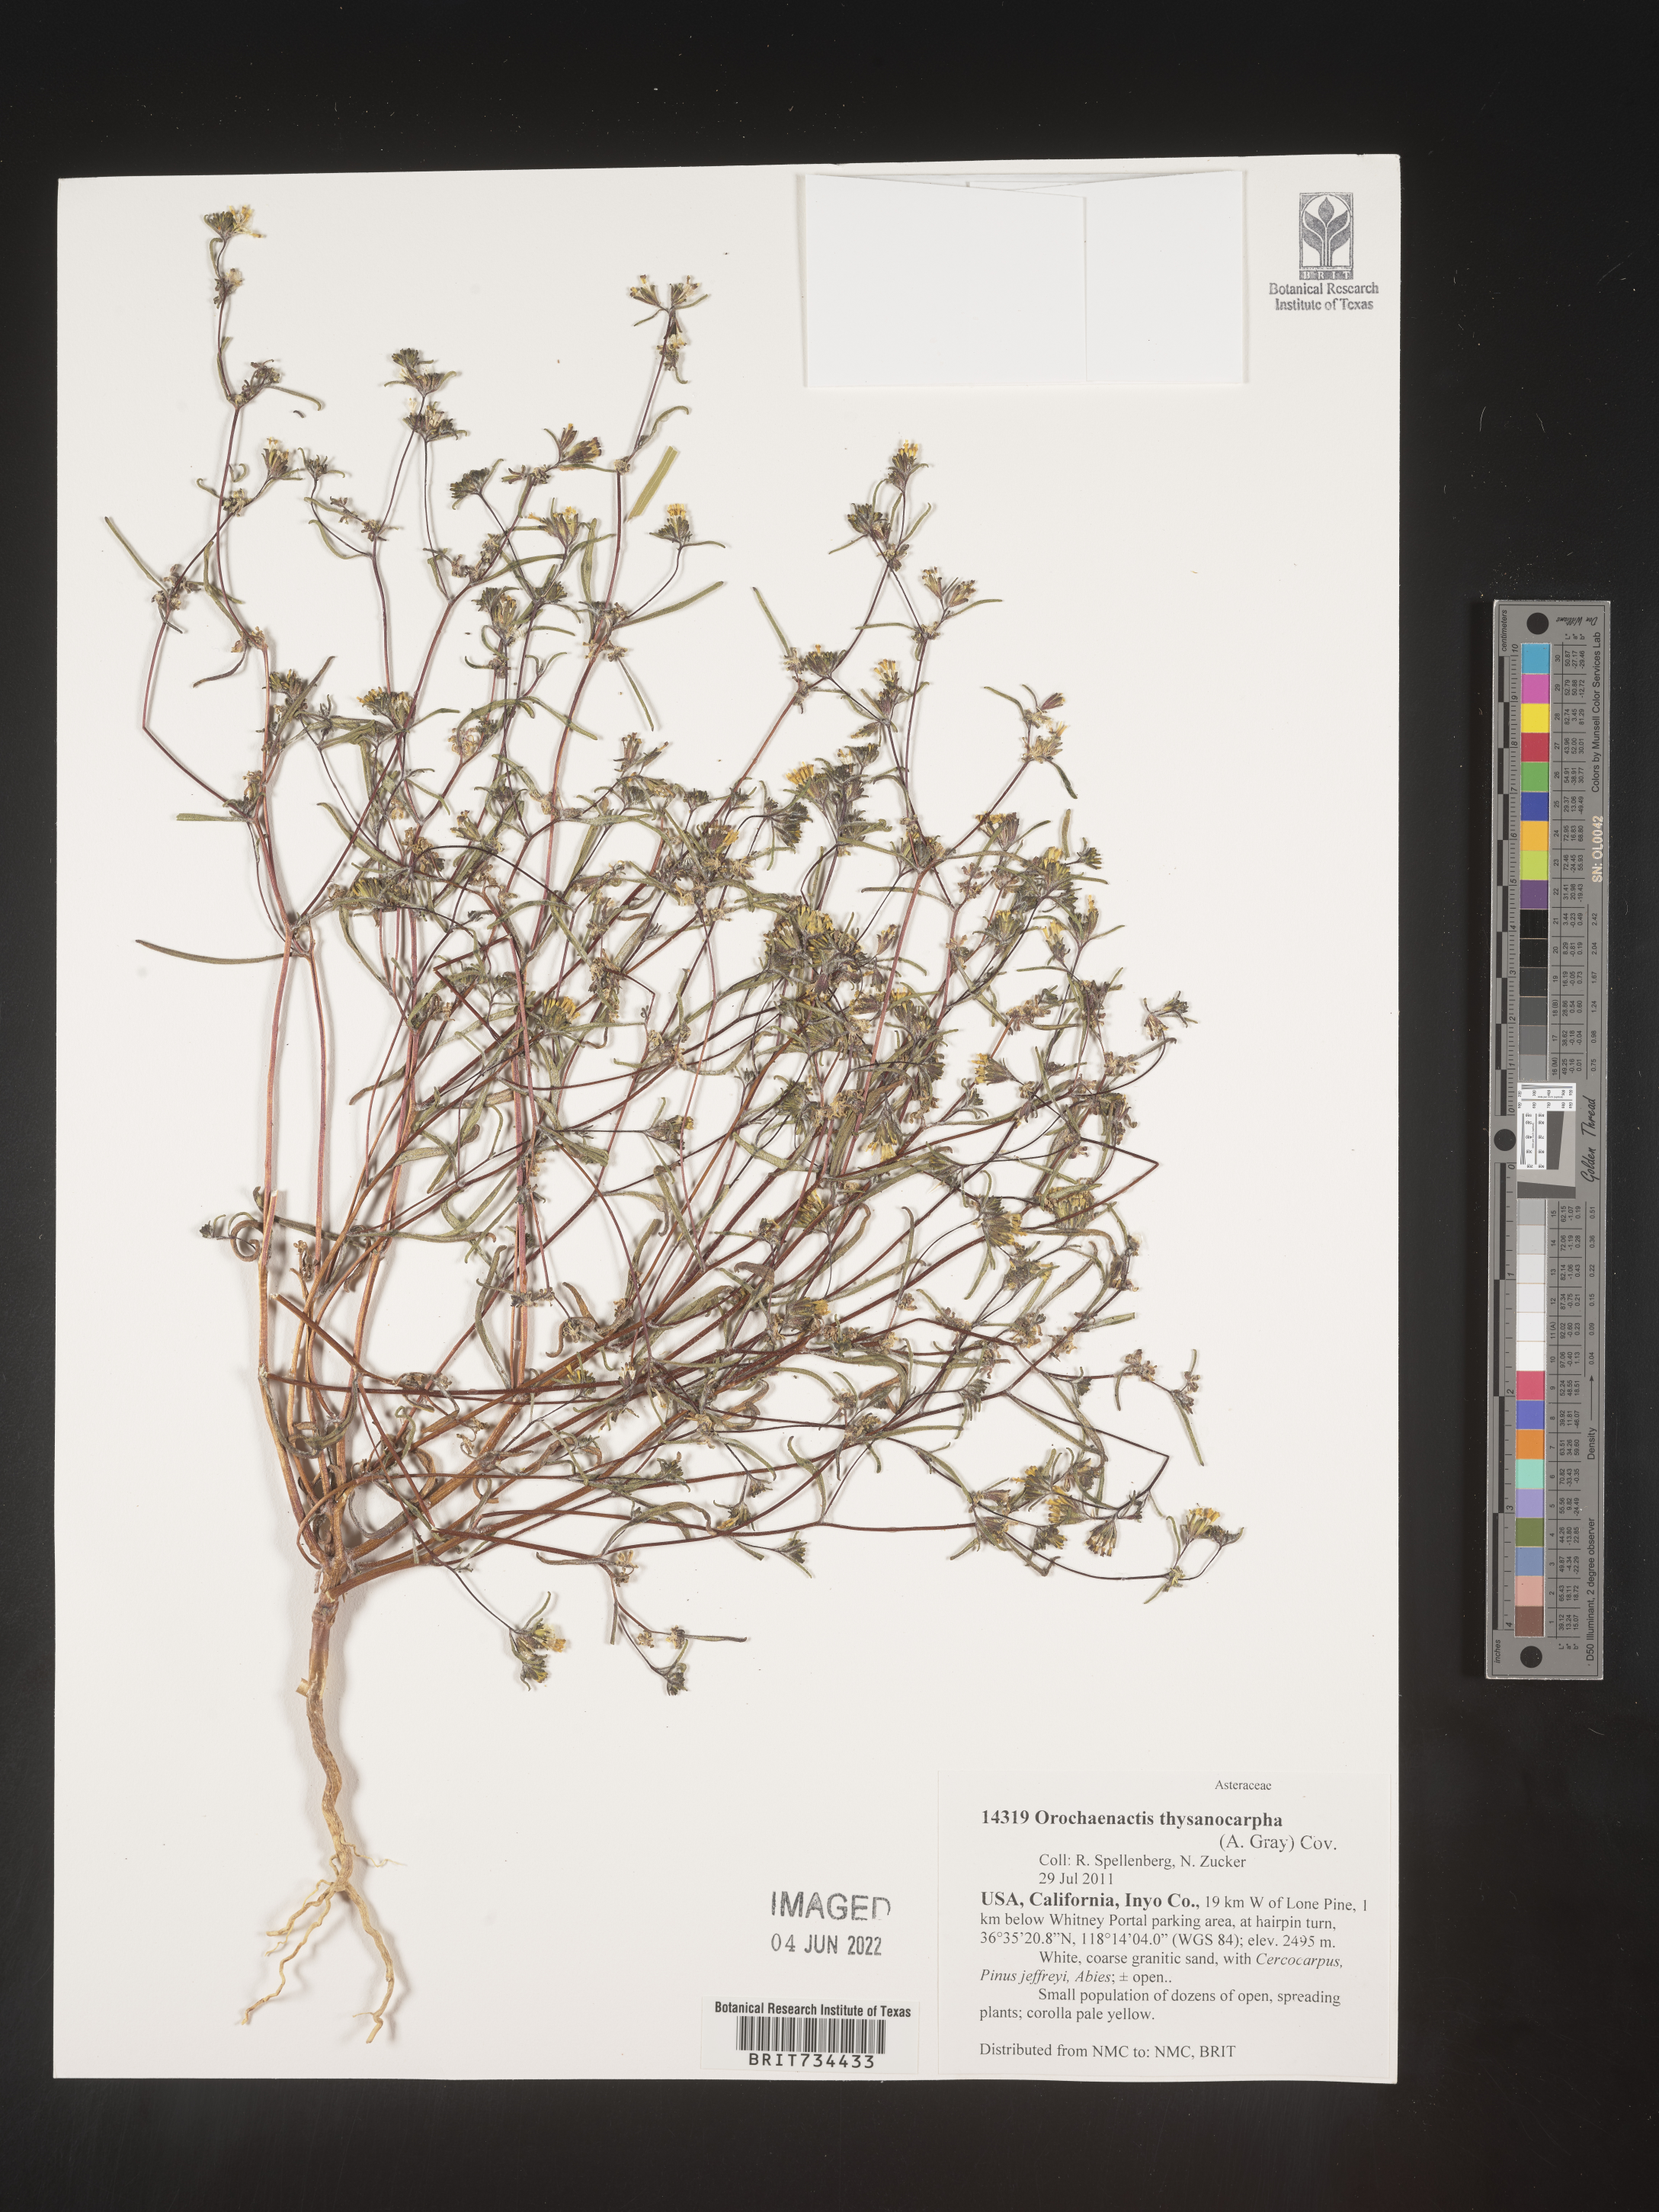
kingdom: Plantae
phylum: Tracheophyta
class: Magnoliopsida
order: Asterales
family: Asteraceae
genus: Orochaenactis
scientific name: Orochaenactis thysanocarpha
